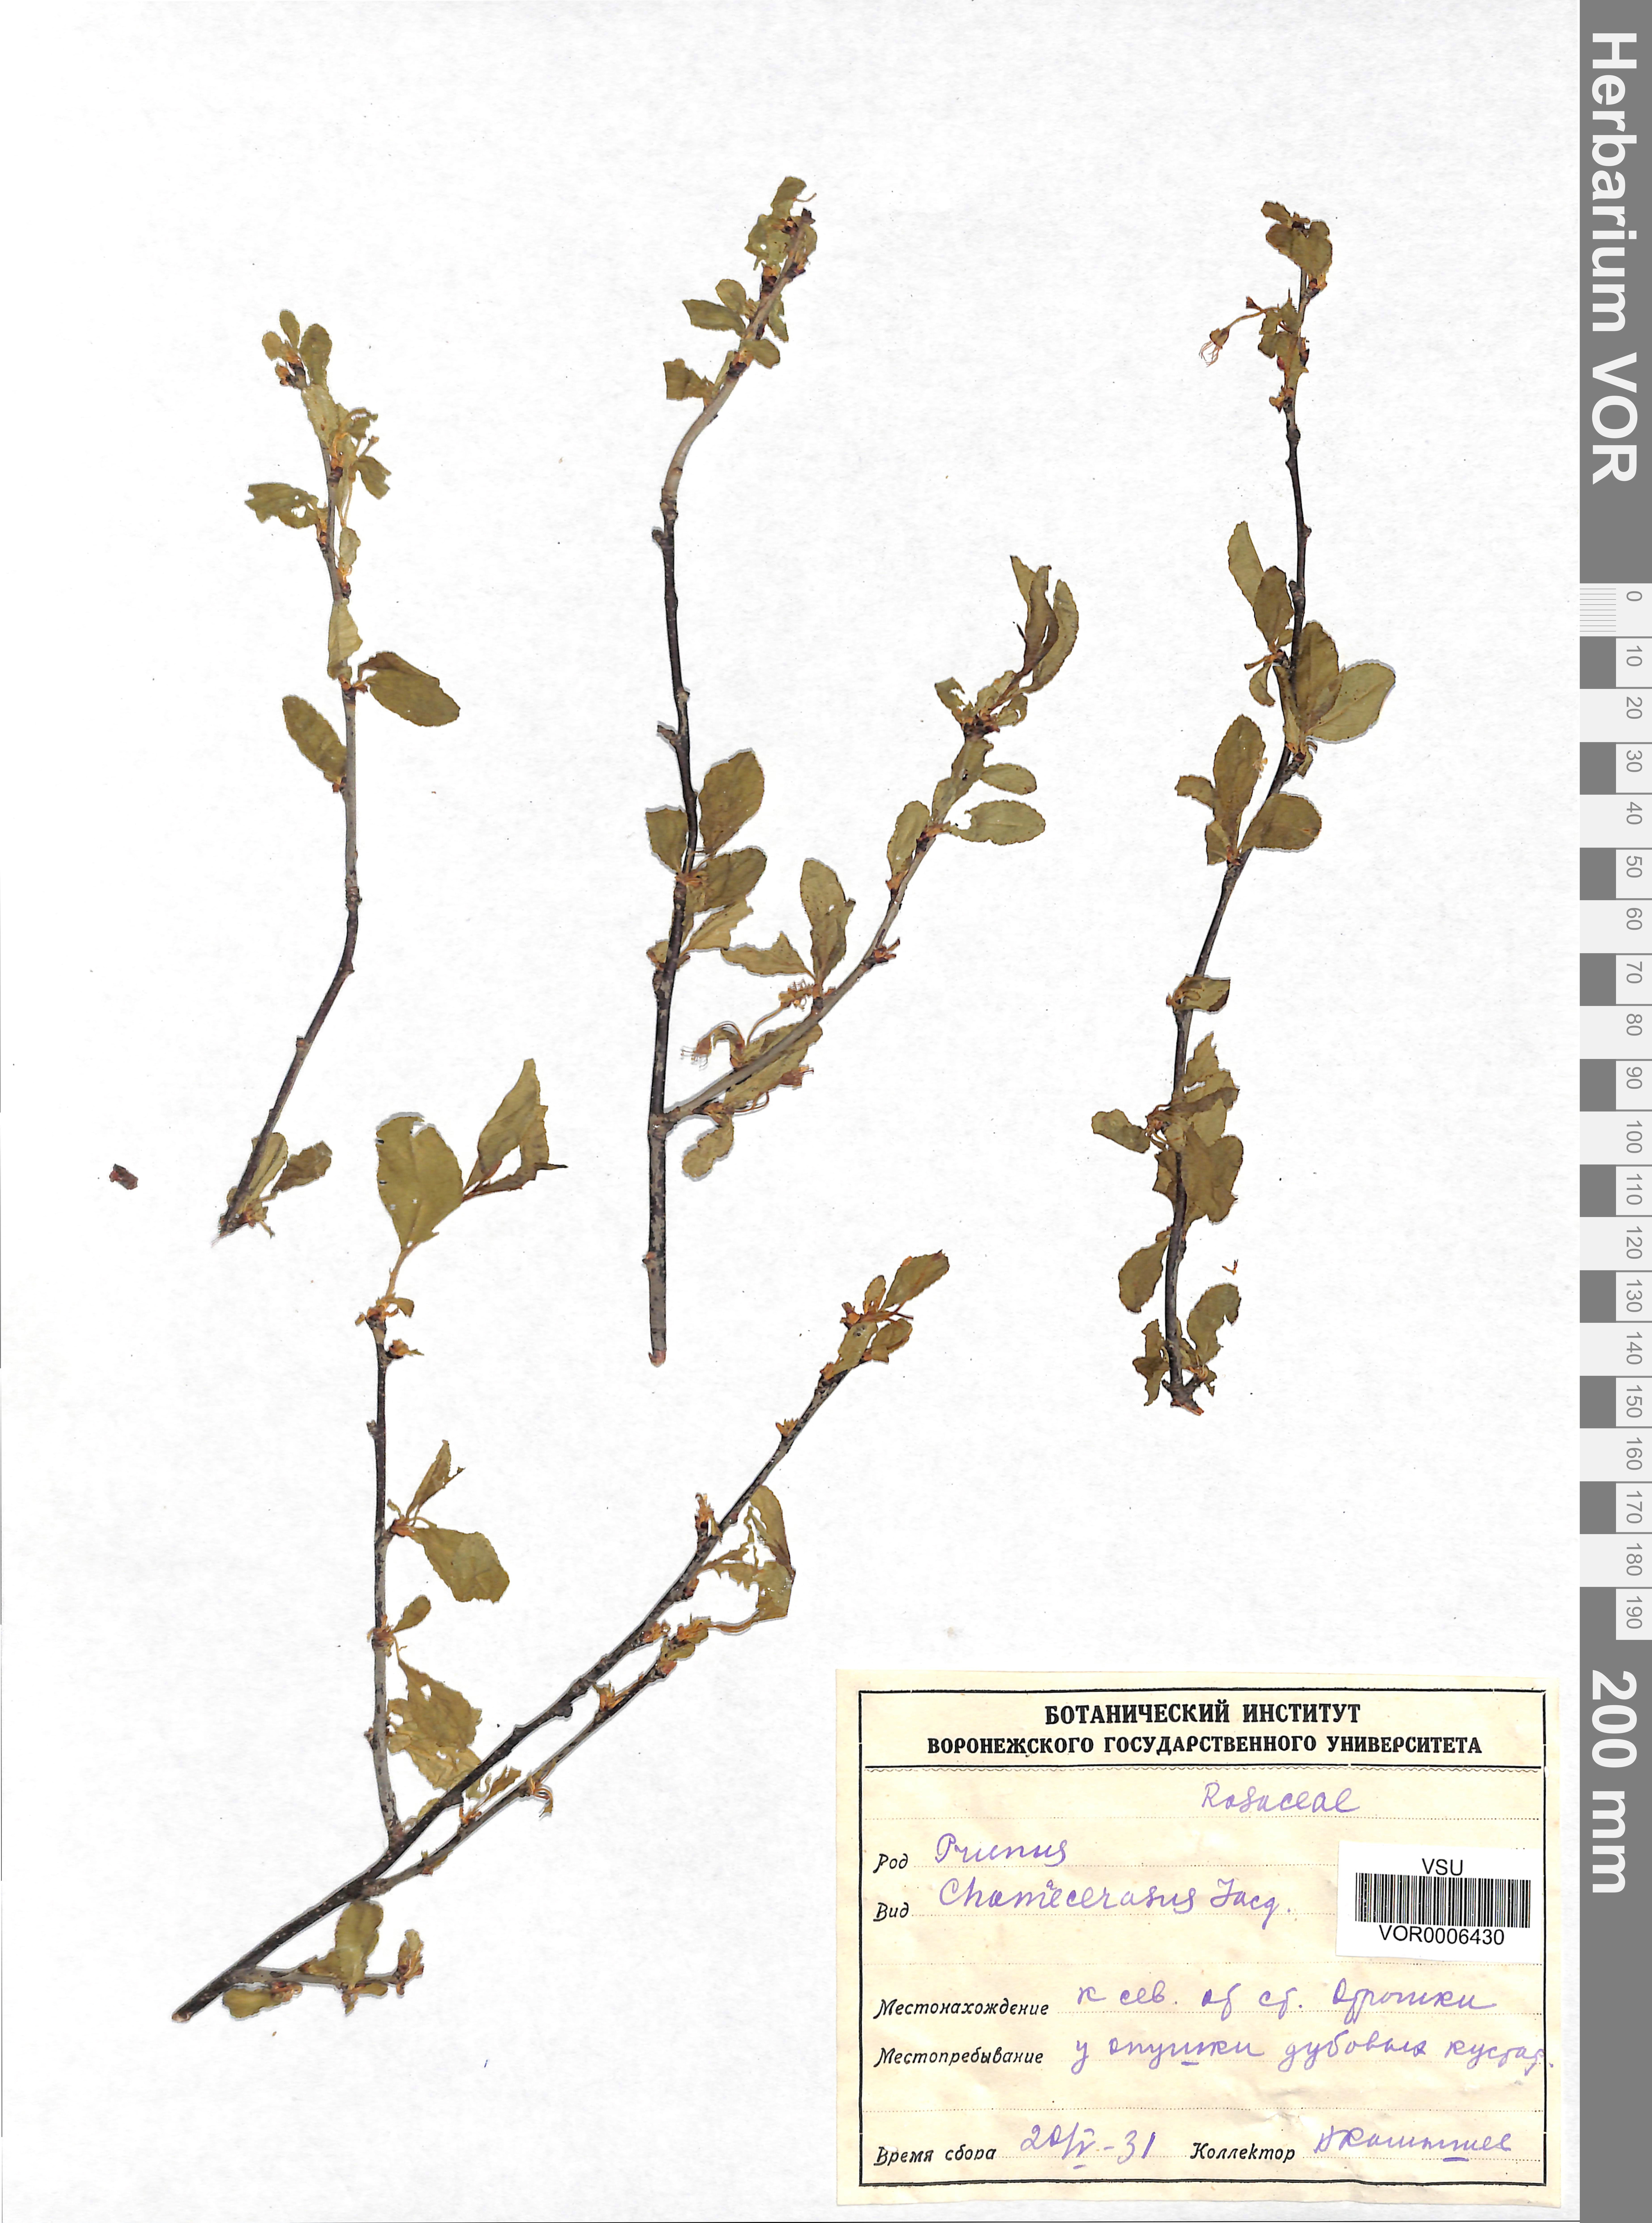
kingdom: Plantae
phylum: Tracheophyta
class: Magnoliopsida
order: Rosales
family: Rosaceae
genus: Prunus
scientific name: Prunus fruticosa
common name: European dwarf cherry
